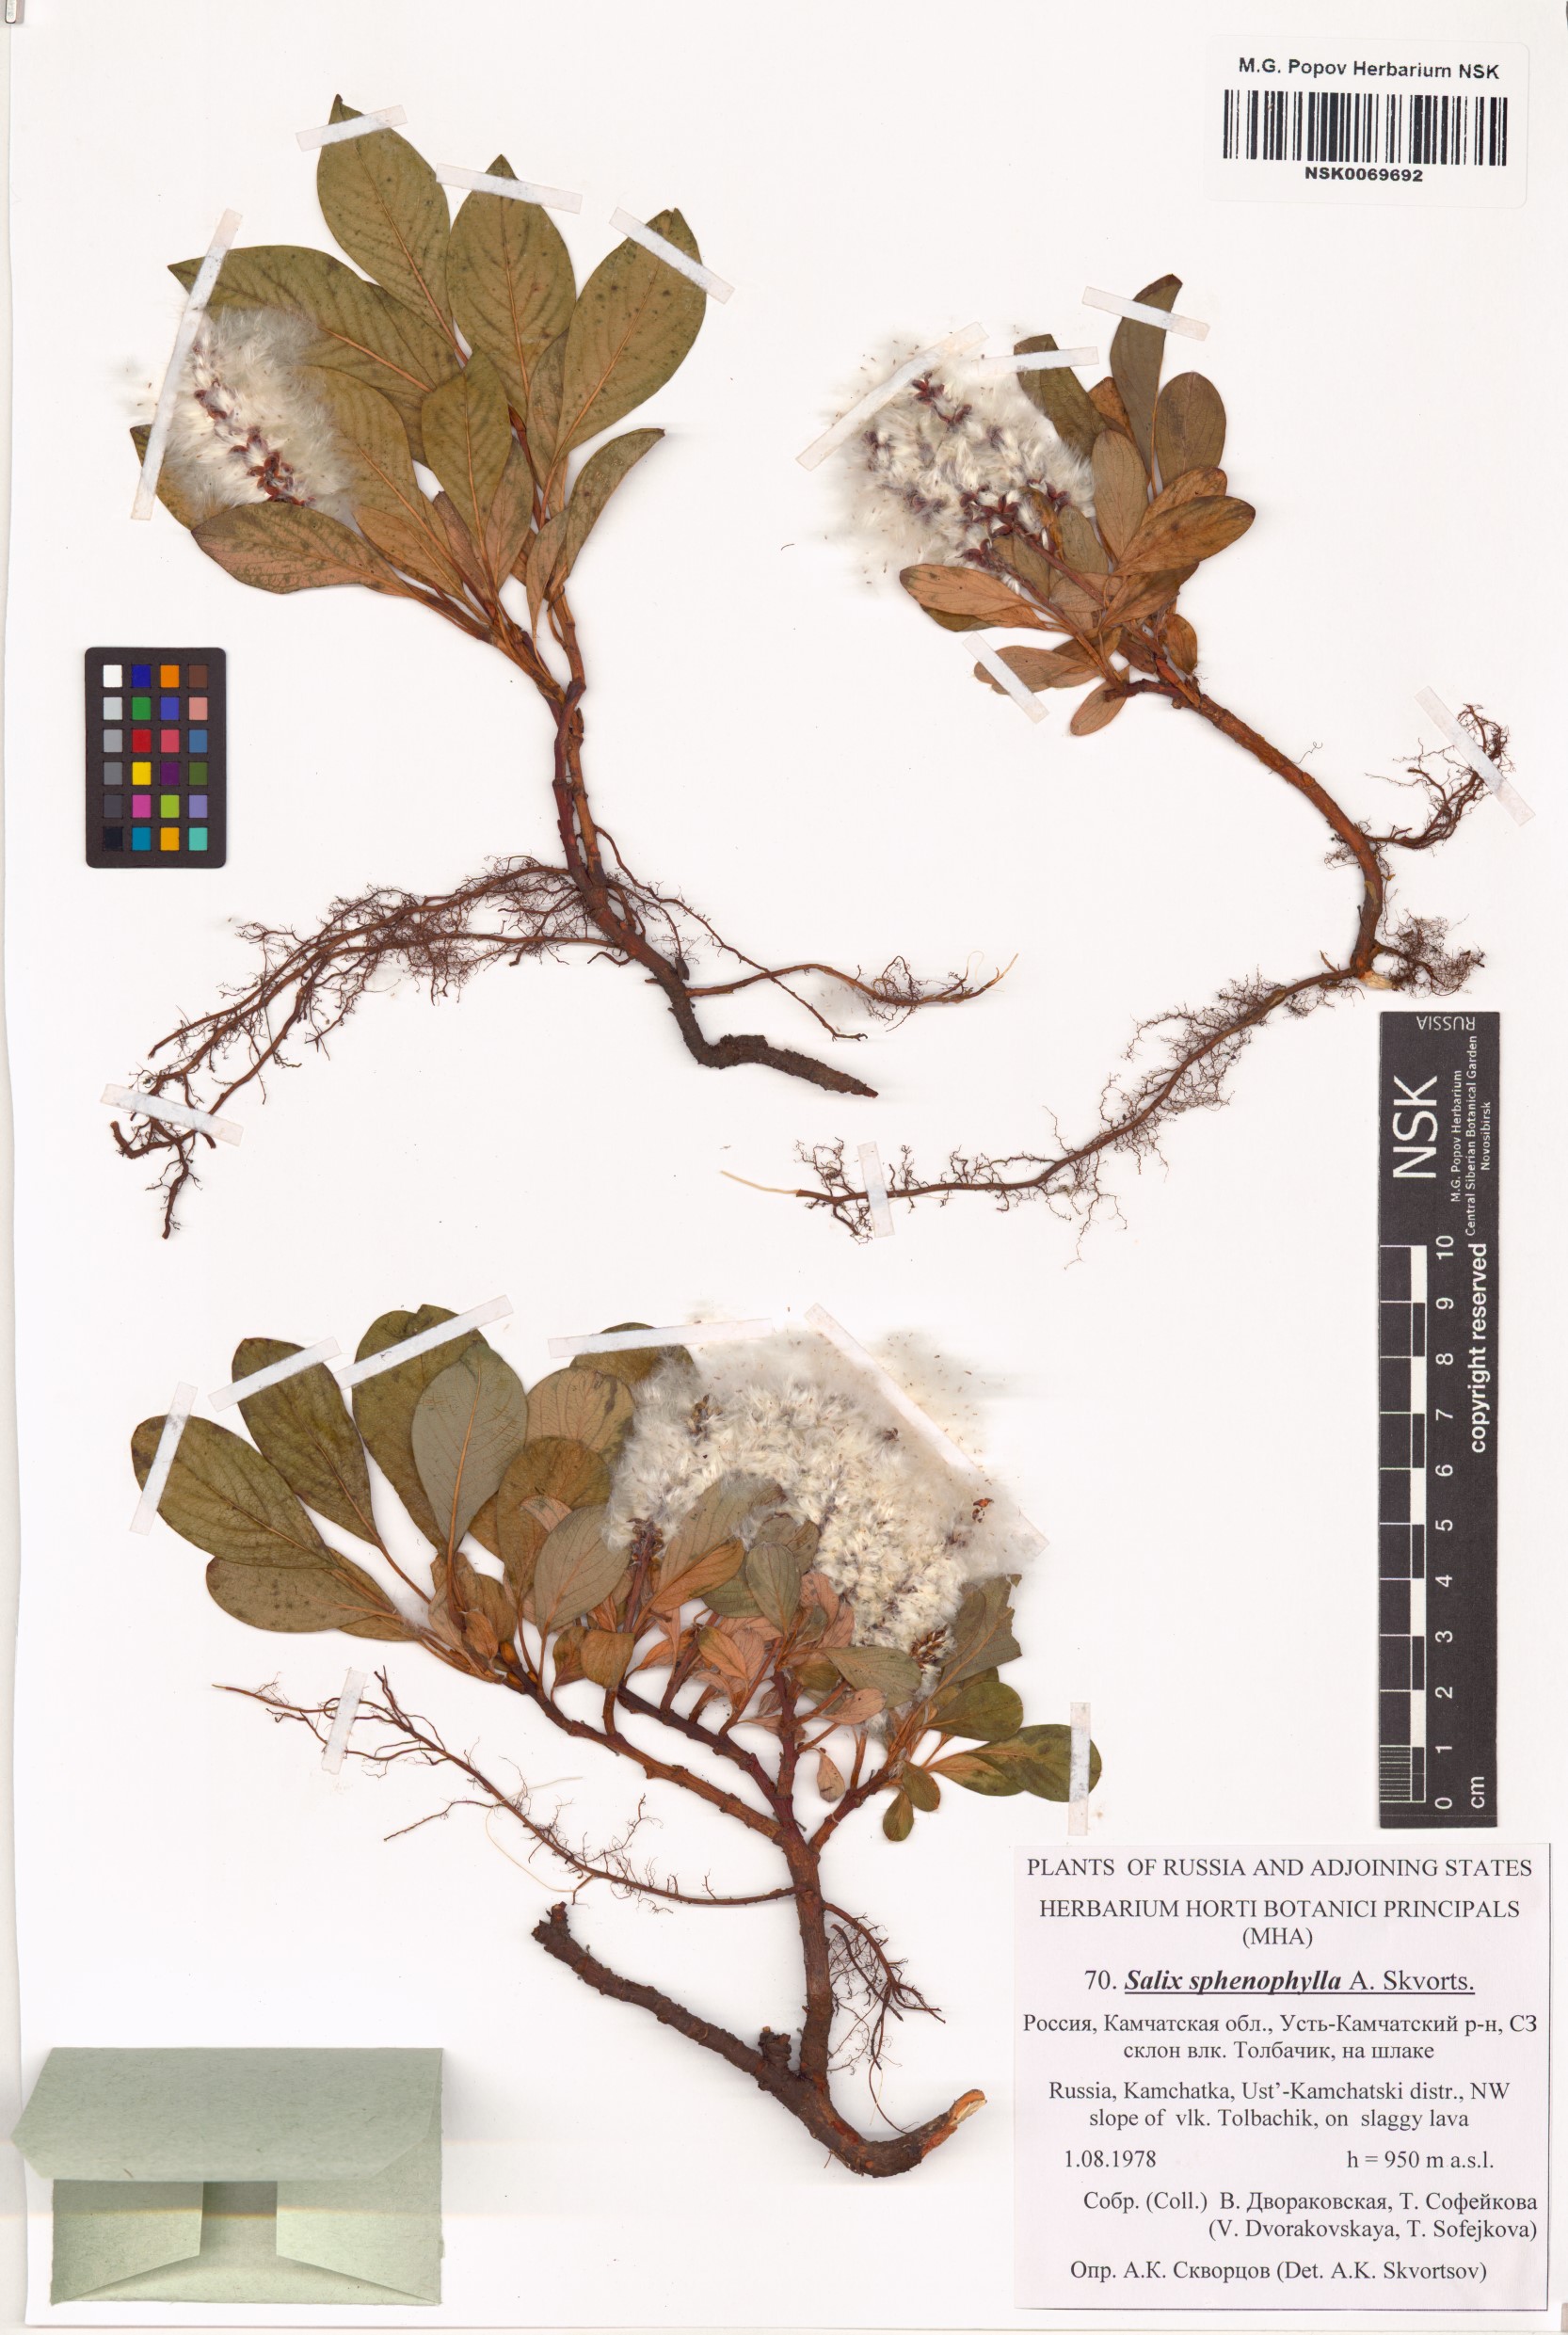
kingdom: Plantae
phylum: Tracheophyta
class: Magnoliopsida
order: Malpighiales
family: Salicaceae
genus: Salix
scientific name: Salix sphenophylla
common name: Wedge-leaved willow
